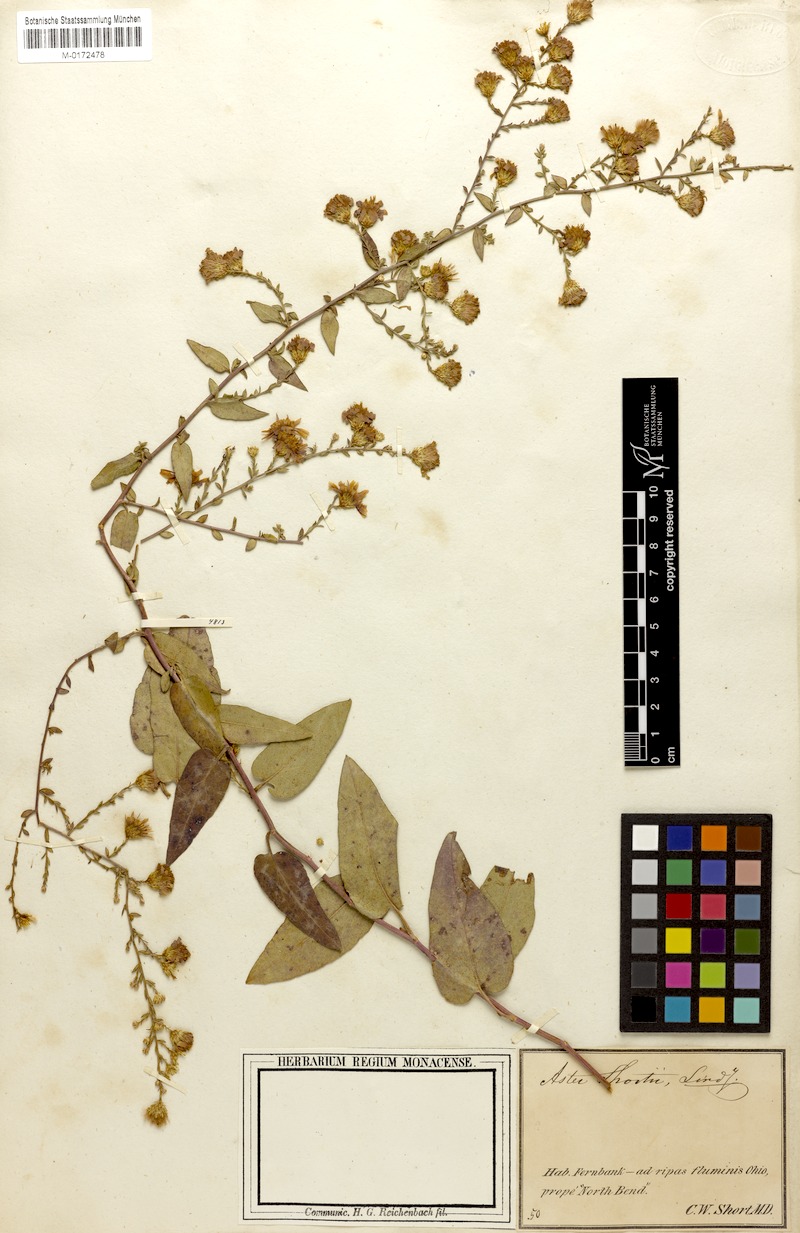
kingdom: Plantae
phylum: Tracheophyta
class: Magnoliopsida
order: Asterales
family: Asteraceae
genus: Symphyotrichum
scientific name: Symphyotrichum shortii
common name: Short's aster
